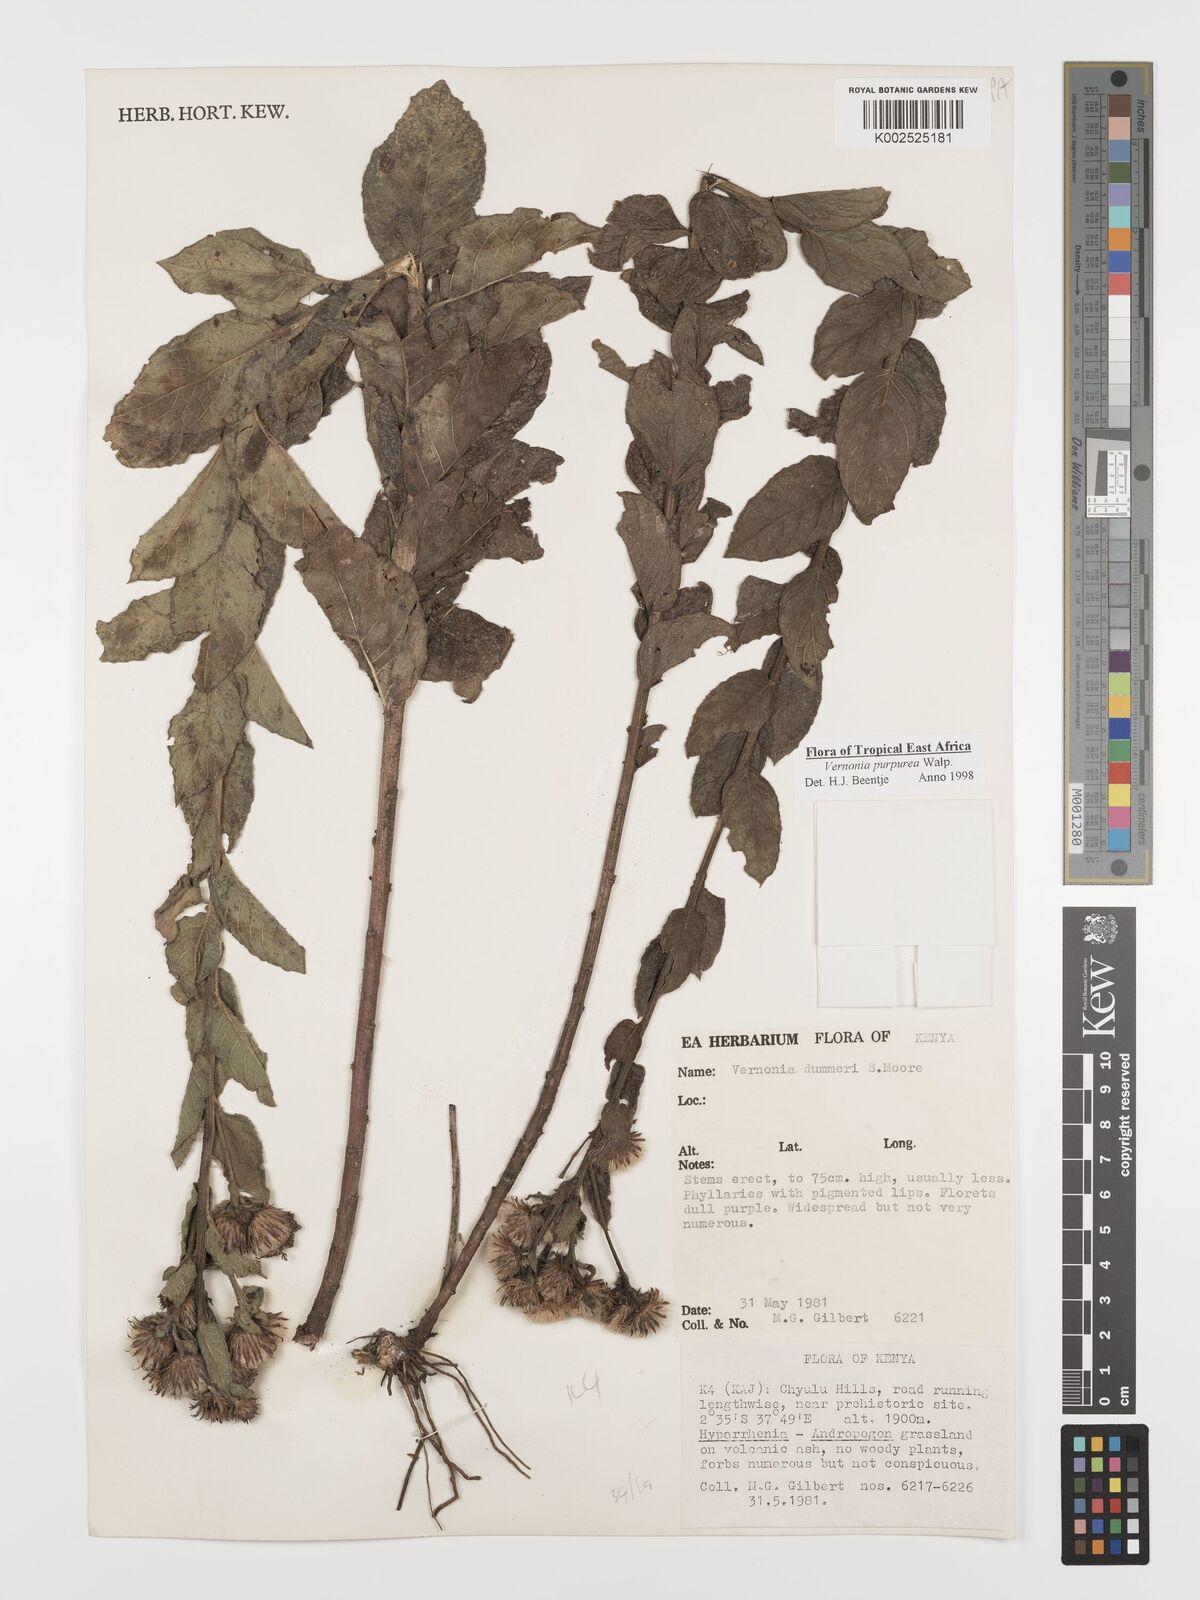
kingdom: Plantae
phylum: Tracheophyta
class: Magnoliopsida
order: Asterales
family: Asteraceae
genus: Nothovernonia
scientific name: Nothovernonia purpurea
